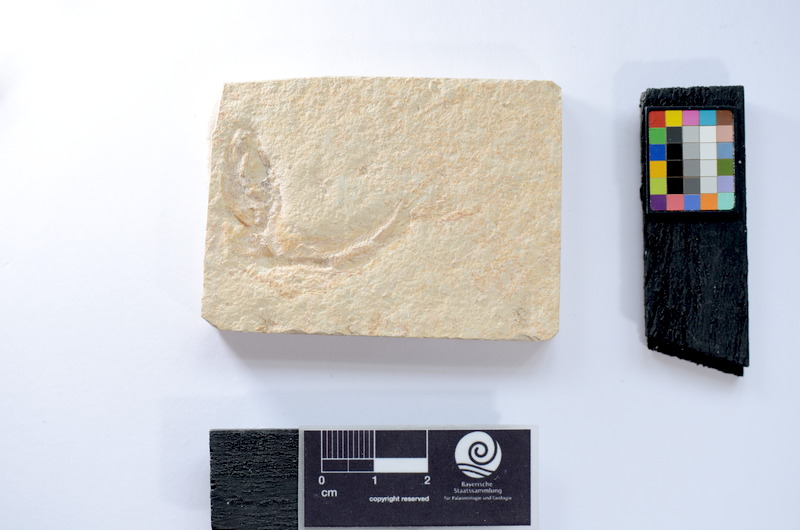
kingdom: Animalia
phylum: Chordata
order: Salmoniformes
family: Orthogonikleithridae
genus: Leptolepides
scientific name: Leptolepides sprattiformis
